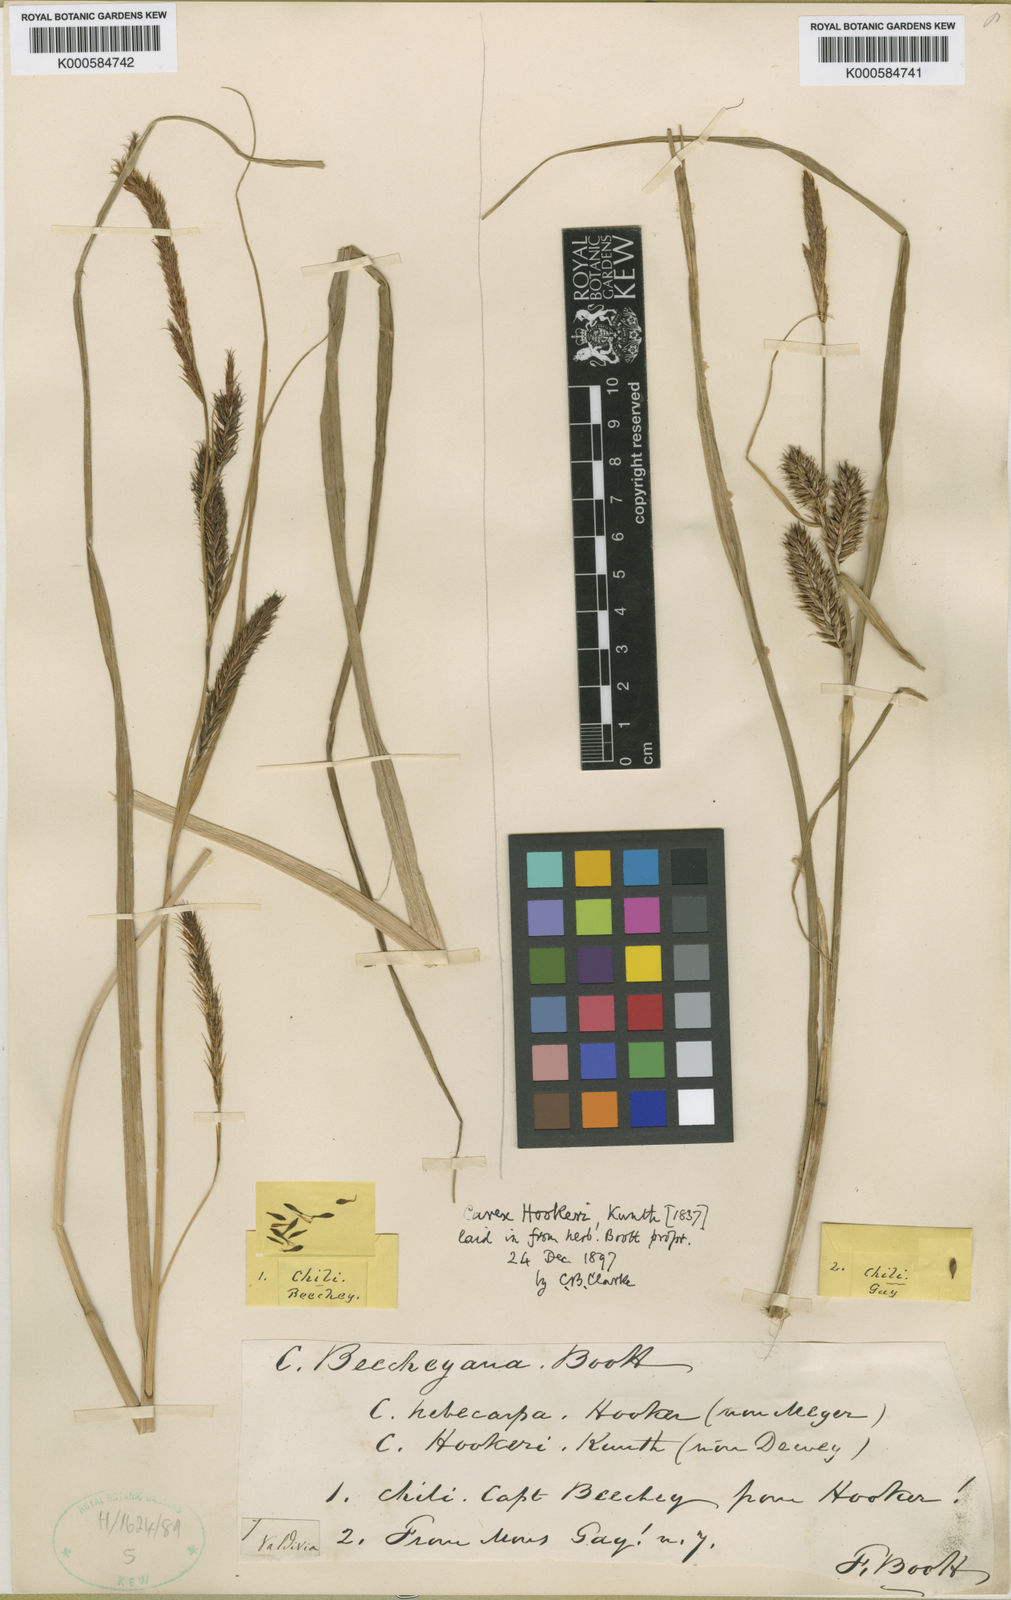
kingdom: Plantae
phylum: Tracheophyta
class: Liliopsida
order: Poales
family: Cyperaceae
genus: Carex
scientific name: Carex hookeri
